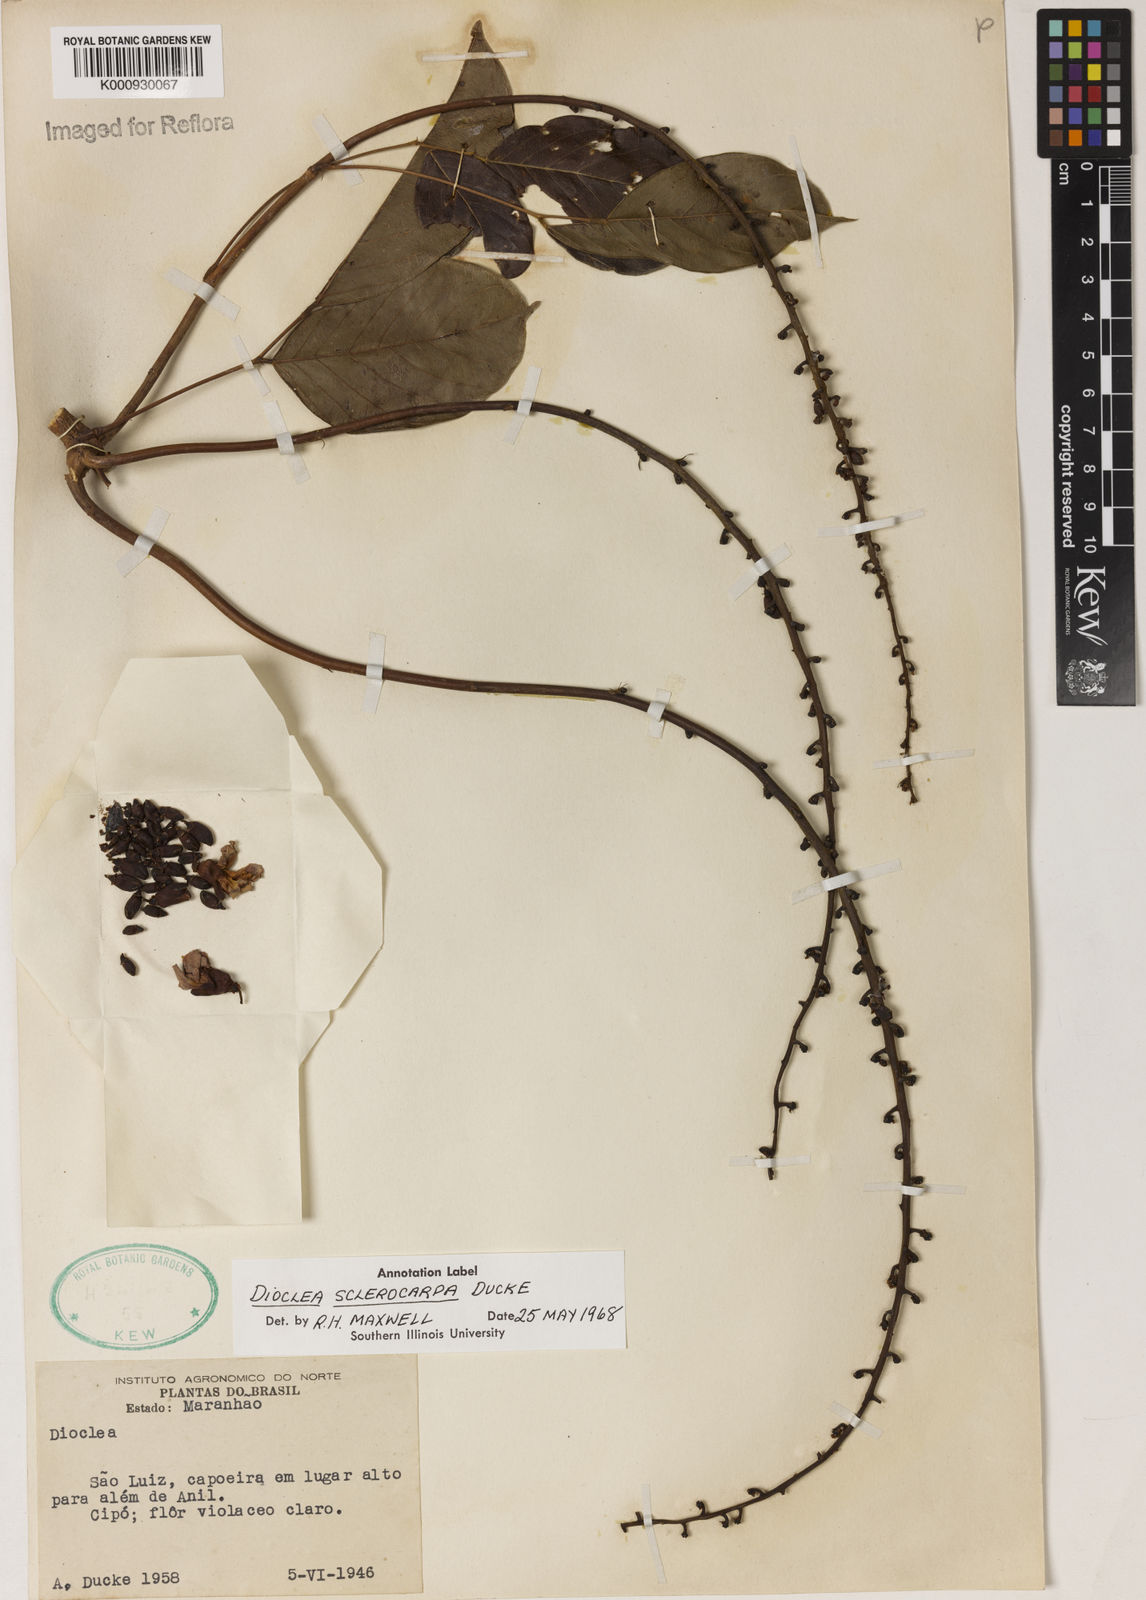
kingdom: Plantae
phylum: Tracheophyta
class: Magnoliopsida
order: Fabales
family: Fabaceae
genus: Macropsychanthus
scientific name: Macropsychanthus sclerocarpus
